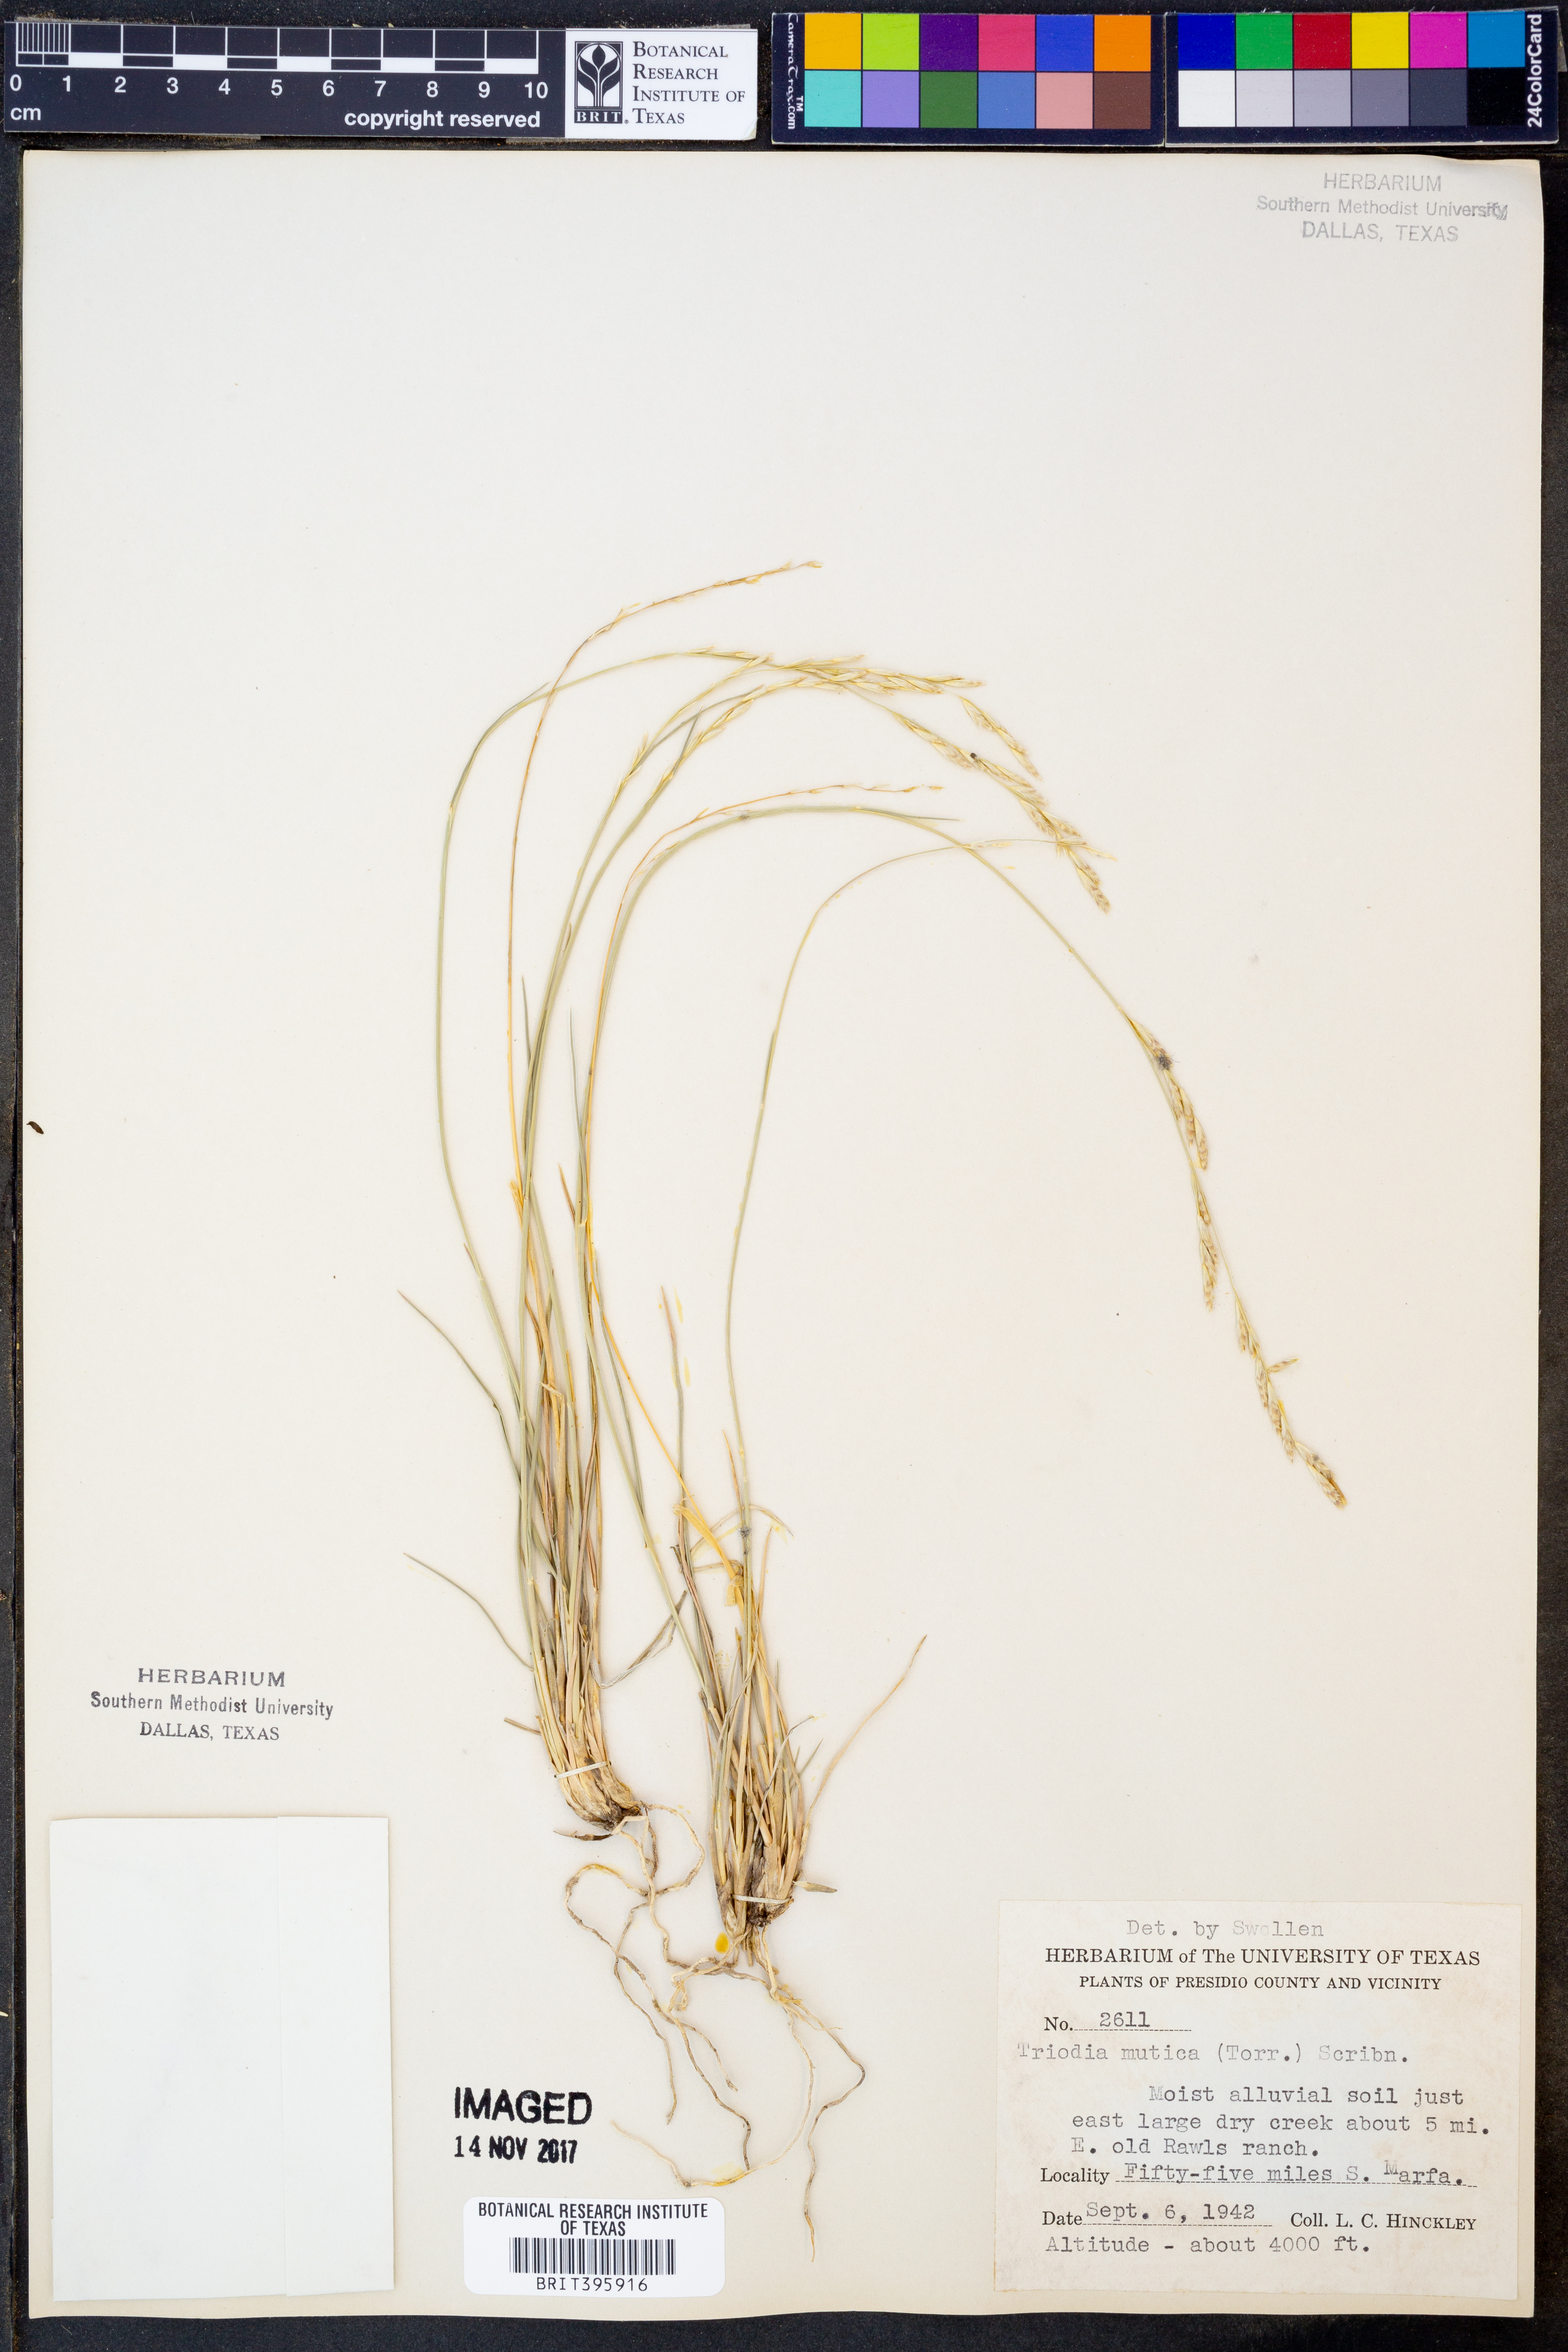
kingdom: Plantae
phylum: Tracheophyta
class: Liliopsida
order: Poales
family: Poaceae
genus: Tridentopsis
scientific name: Tridentopsis mutica
